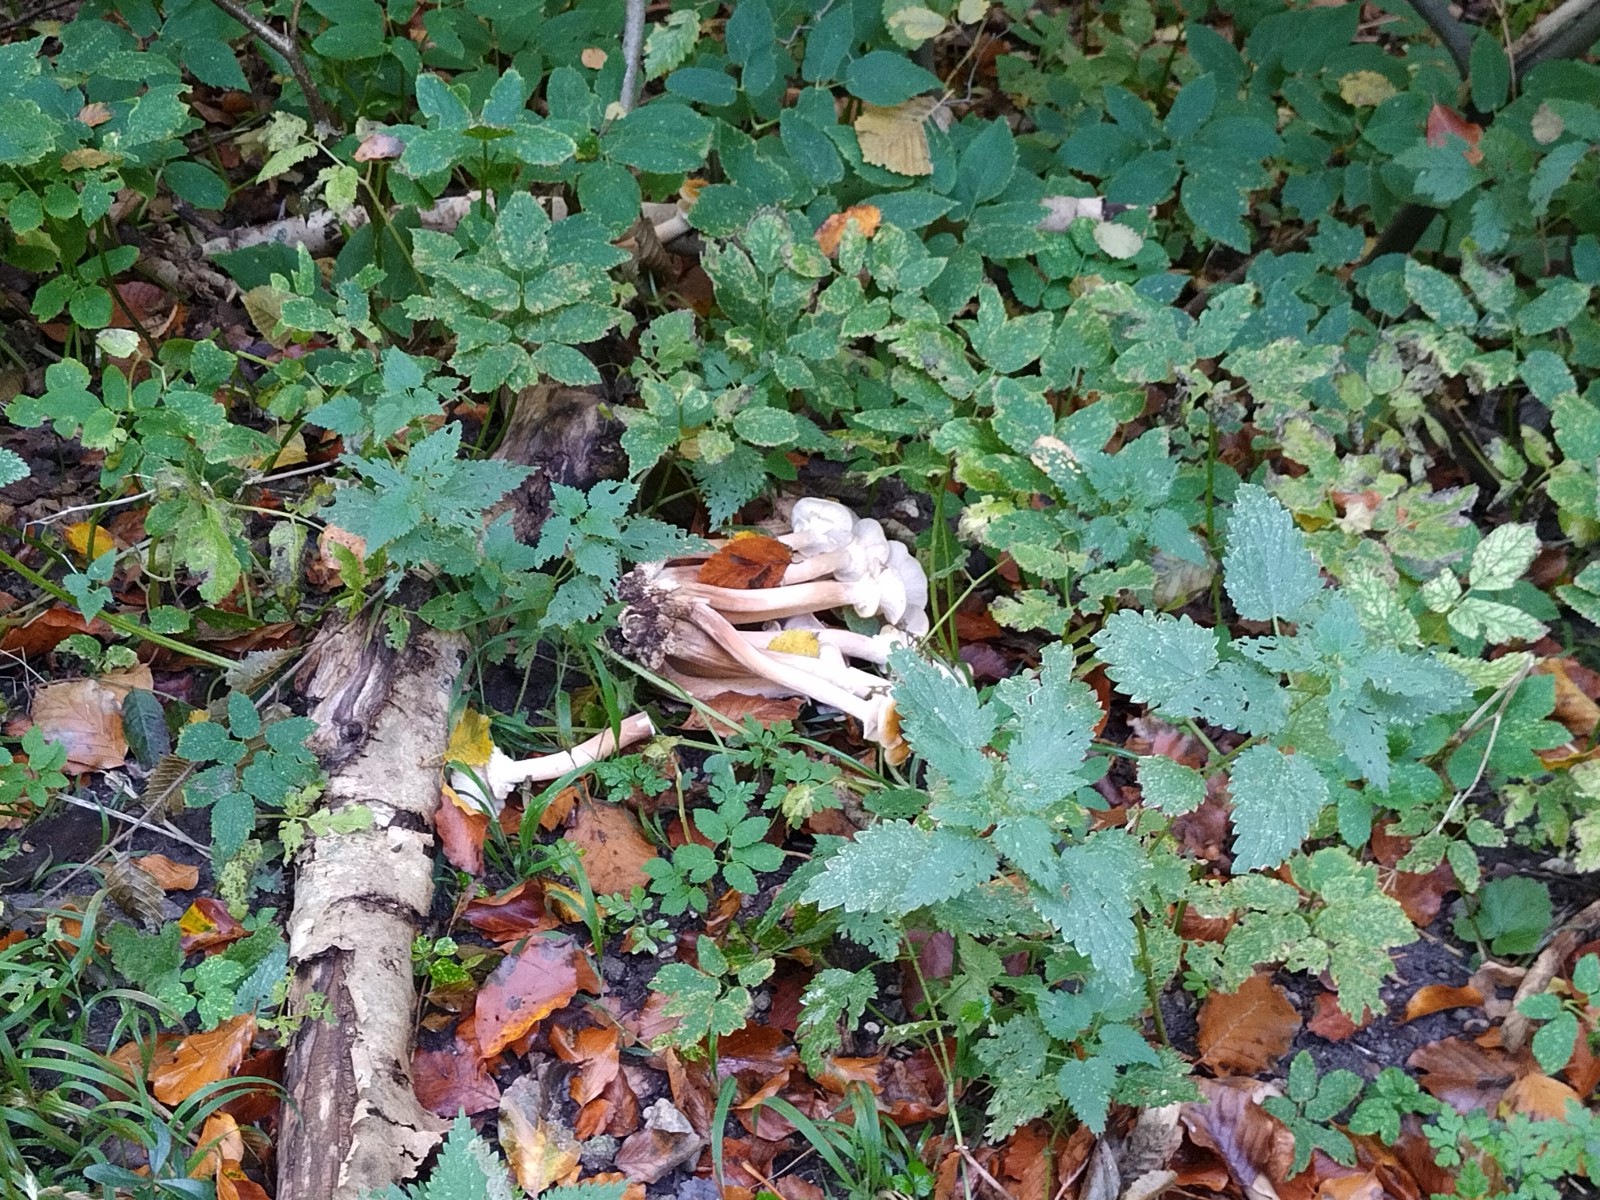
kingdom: Fungi
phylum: Basidiomycota
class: Agaricomycetes
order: Agaricales
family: Physalacriaceae
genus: Armillaria
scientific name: Armillaria mellea
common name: ægte honningsvamp
